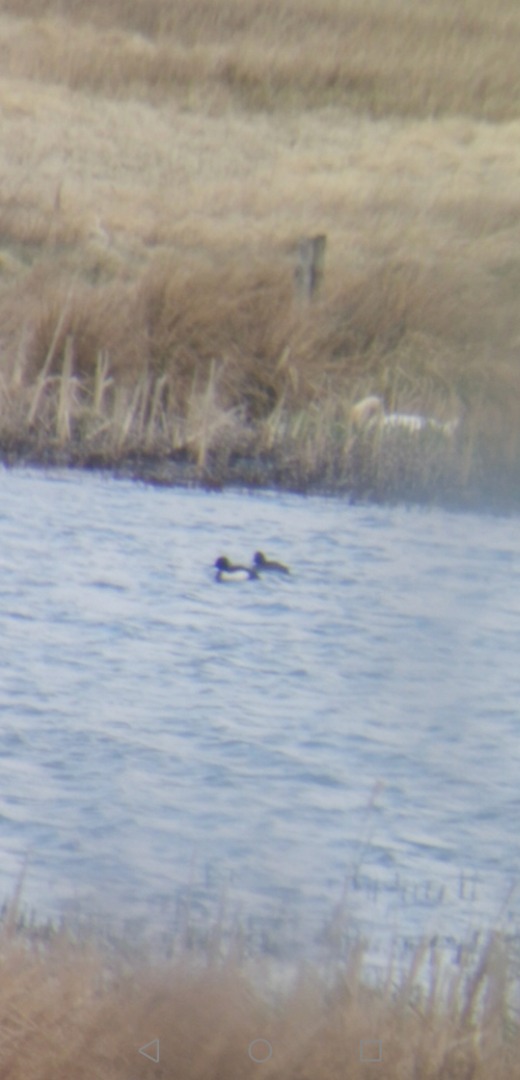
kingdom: Animalia
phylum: Chordata
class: Aves
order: Anseriformes
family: Anatidae
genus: Aythya
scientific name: Aythya fuligula
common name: Troldand
